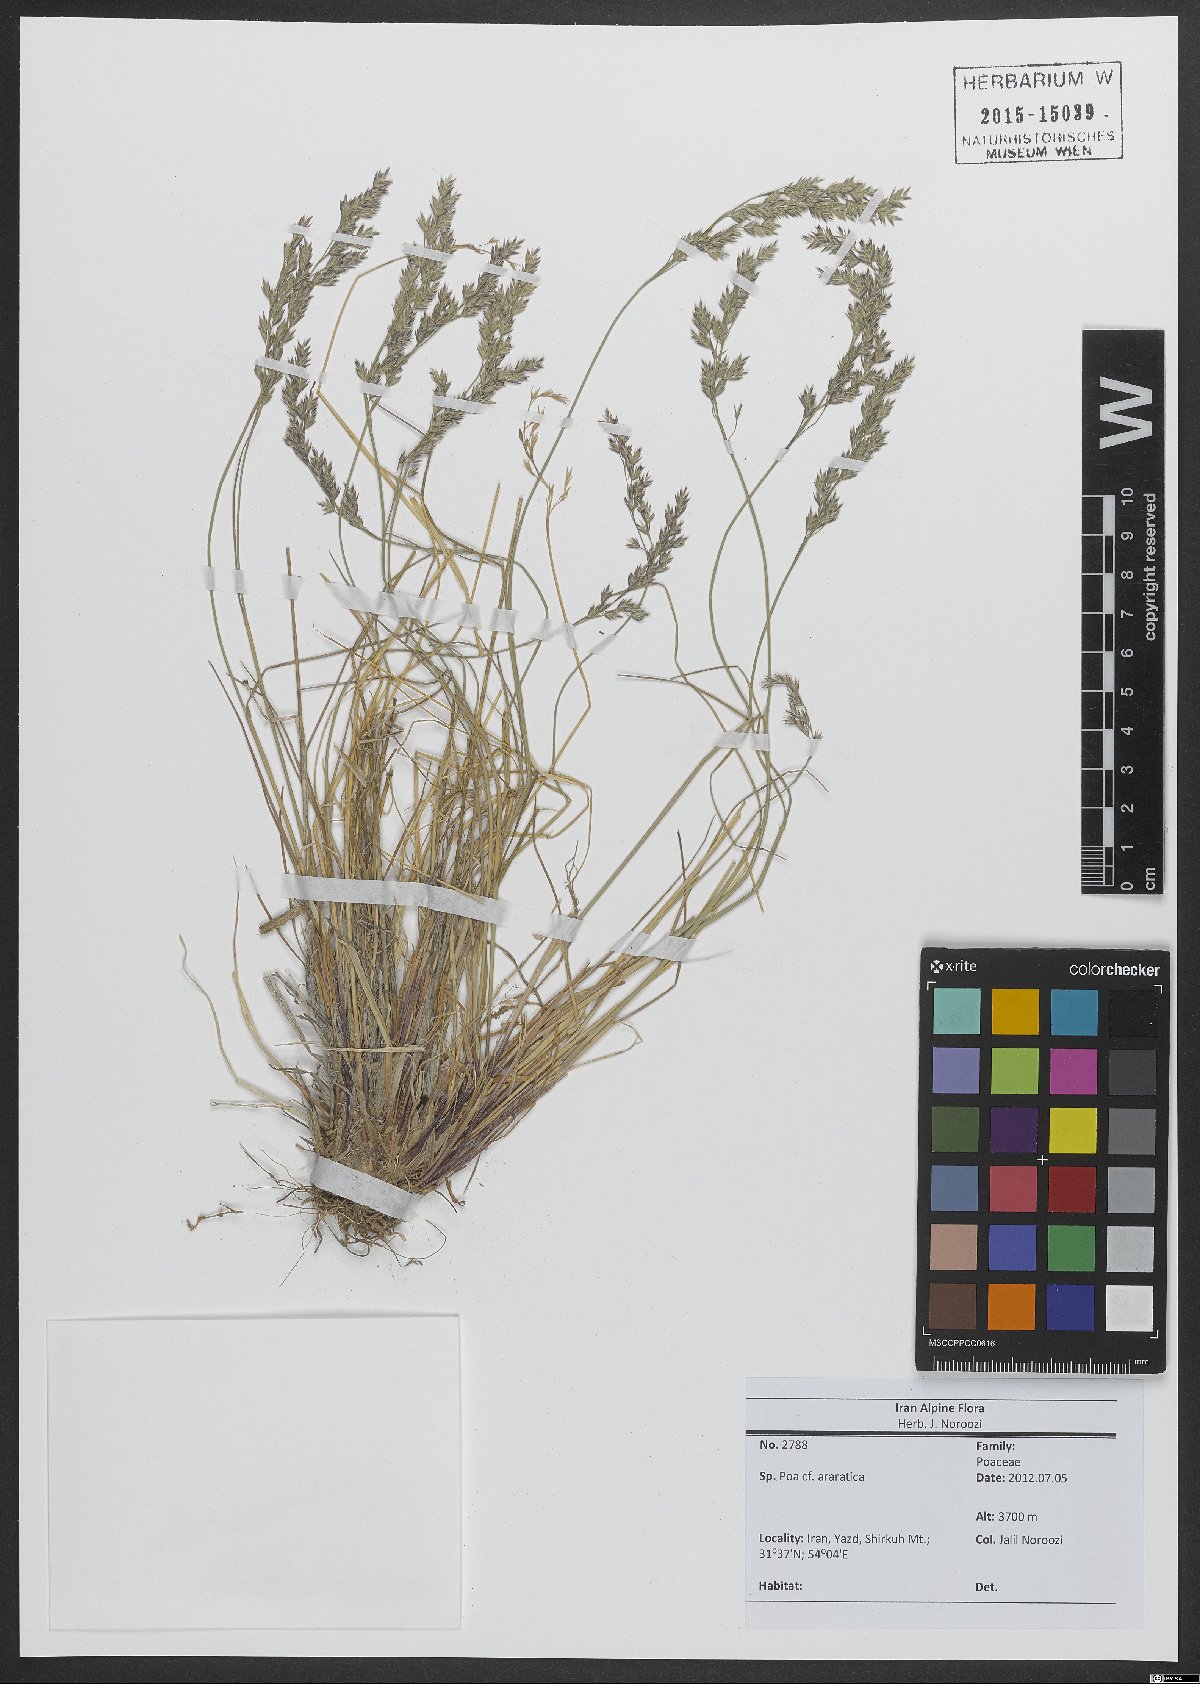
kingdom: Plantae
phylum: Tracheophyta
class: Liliopsida
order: Poales
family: Poaceae
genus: Poa
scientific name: Poa araratica
